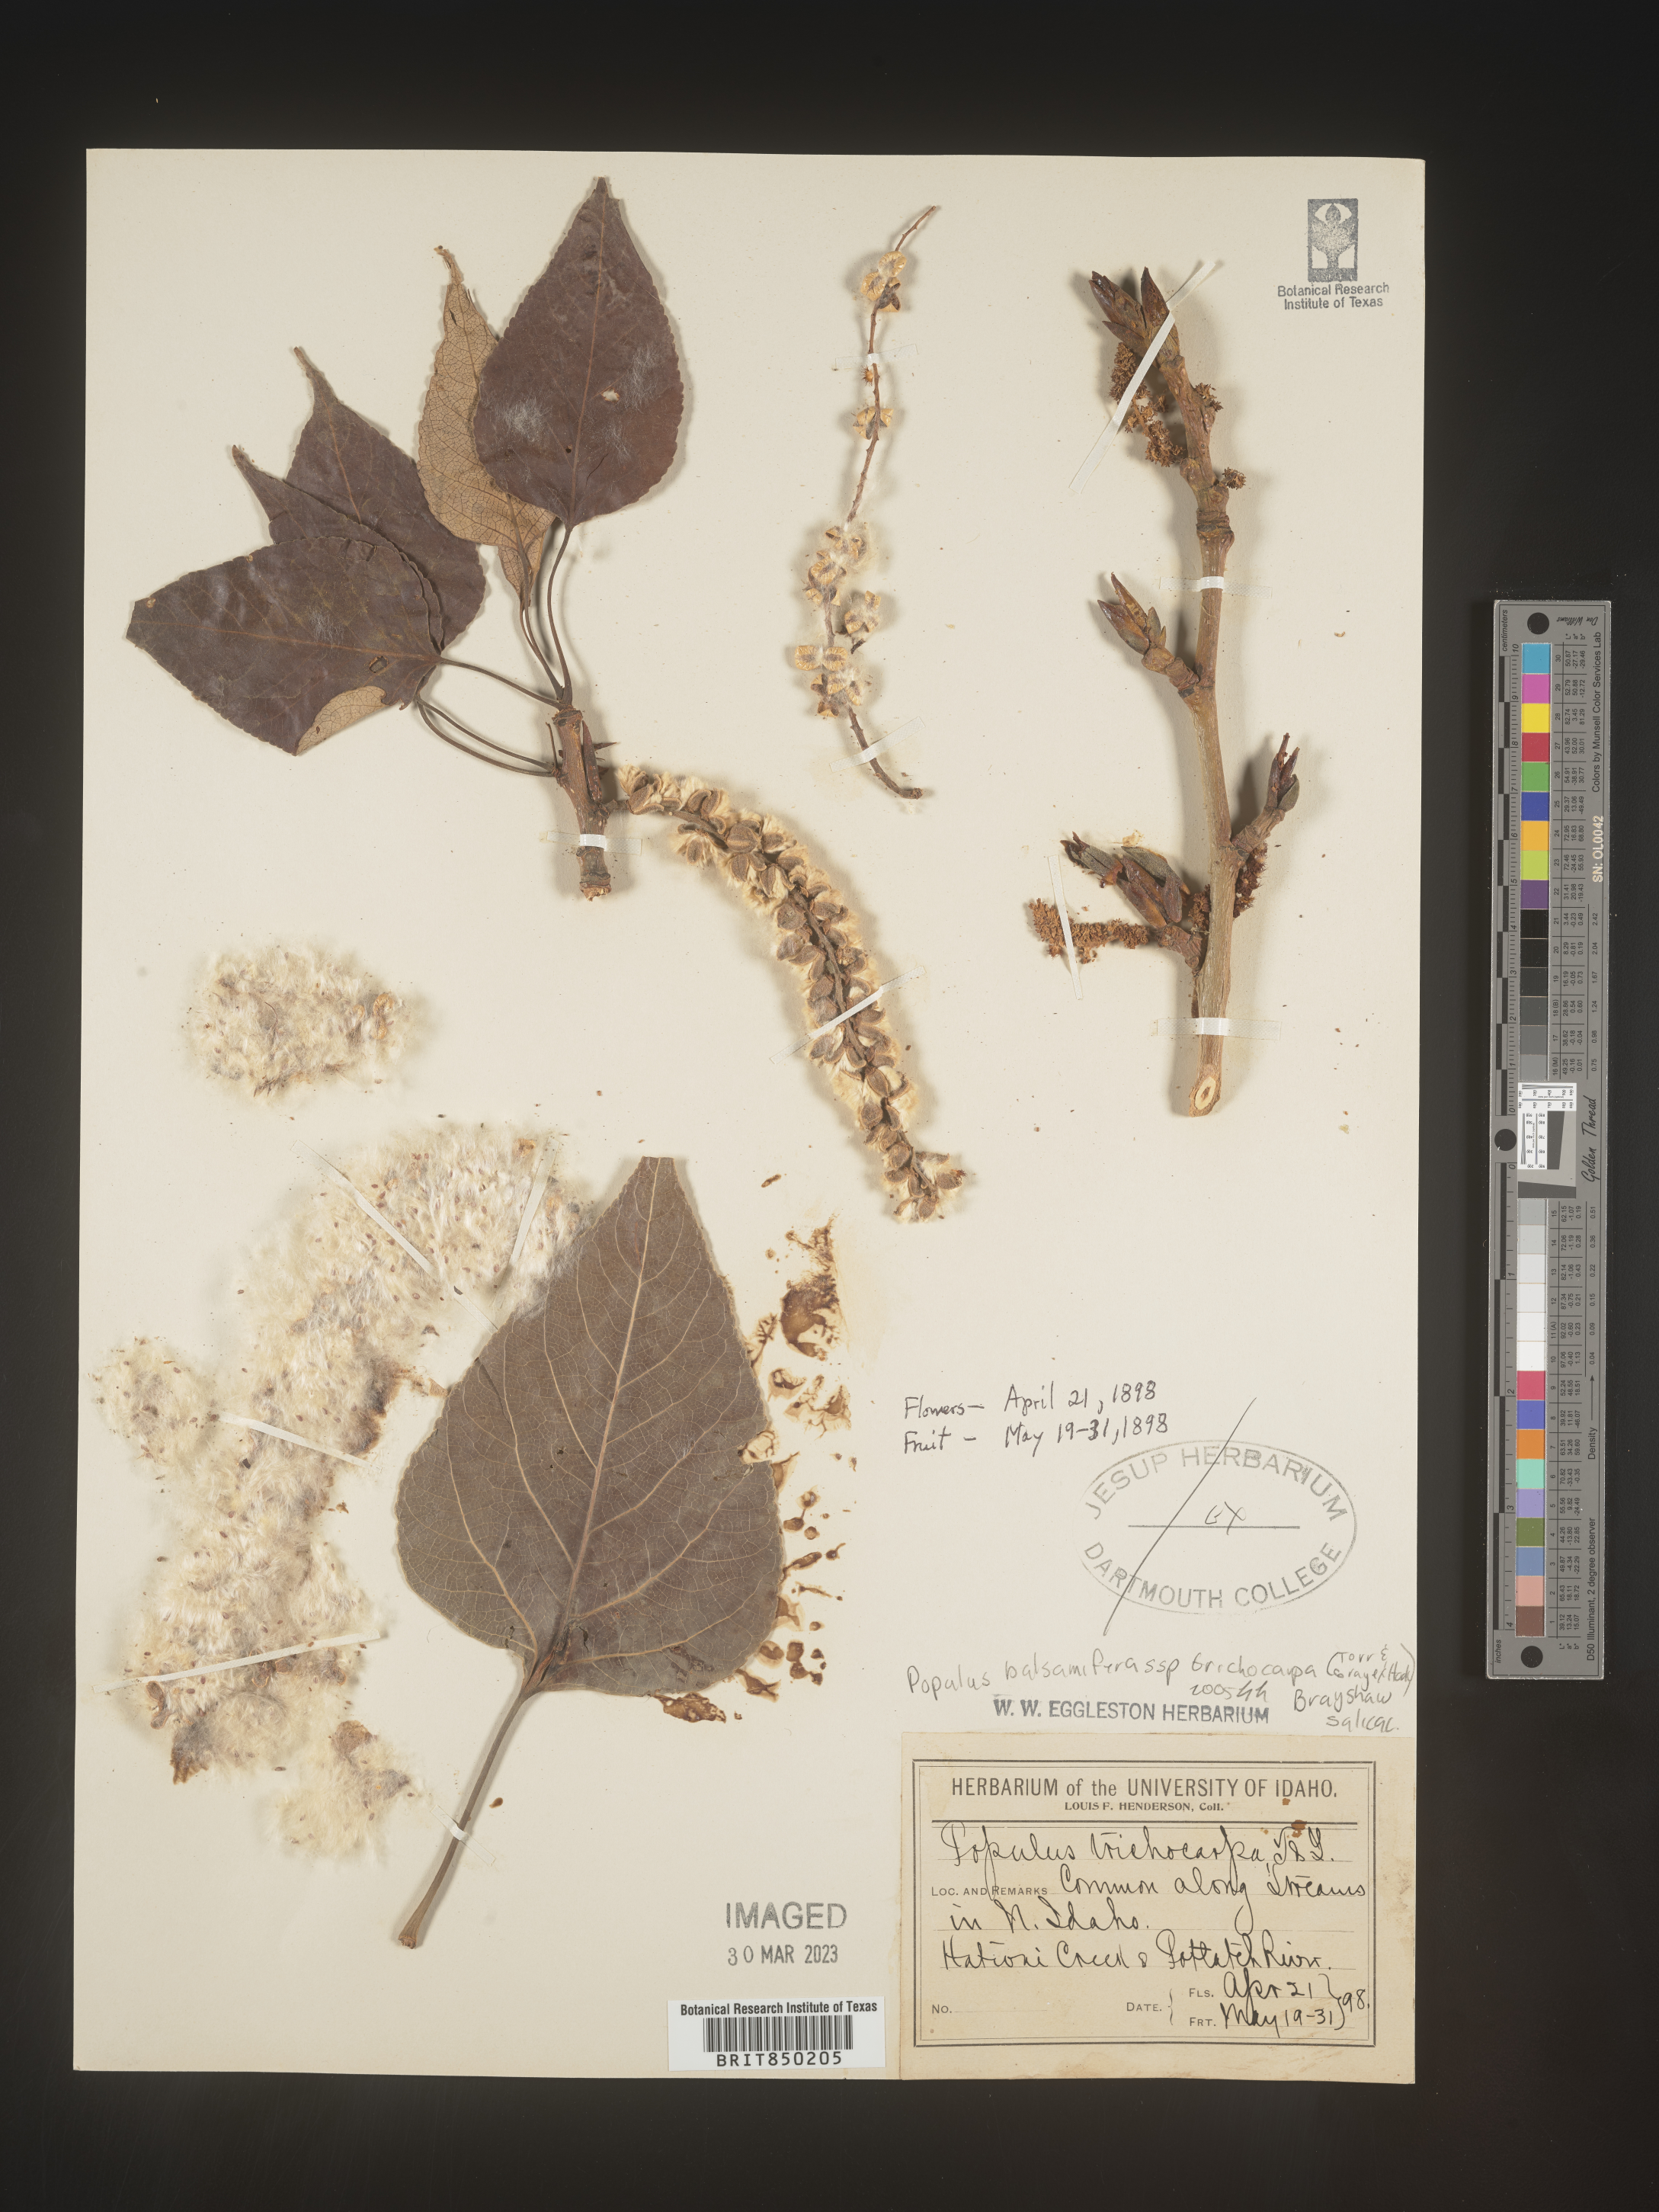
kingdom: Plantae
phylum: Tracheophyta
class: Magnoliopsida
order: Malpighiales
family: Salicaceae
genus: Populus
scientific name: Populus balsamifera
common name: Balsam poplar
